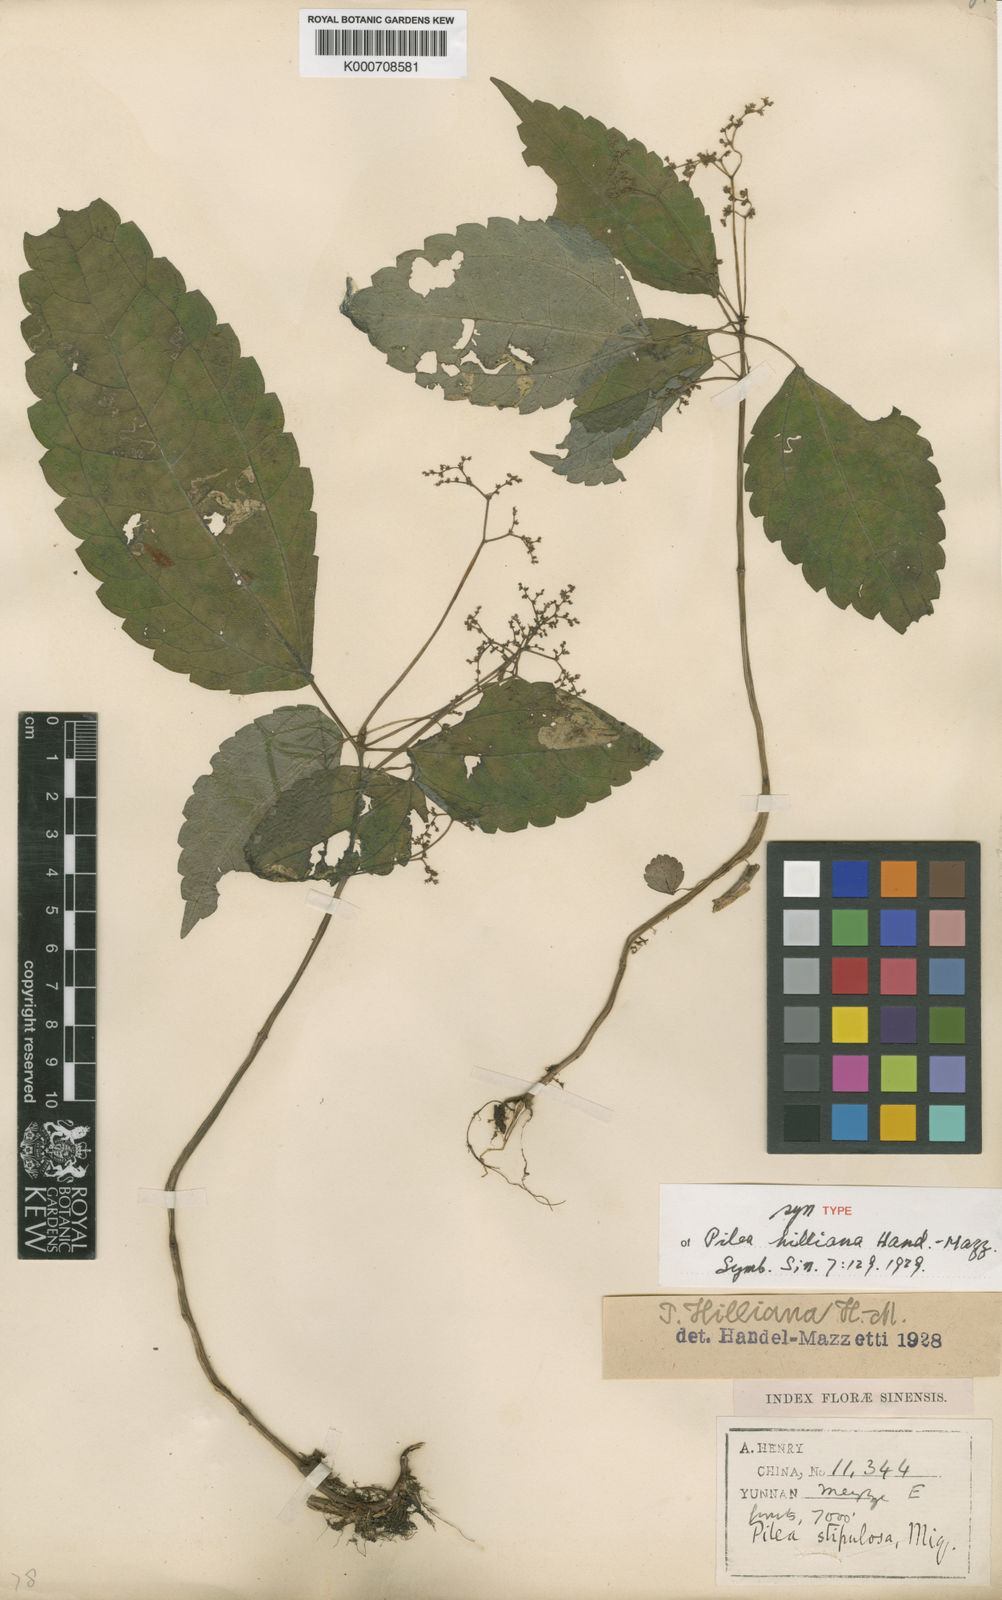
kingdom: Plantae
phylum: Tracheophyta
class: Magnoliopsida
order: Rosales
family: Urticaceae
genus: Achudemia
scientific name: Achudemia hilliana
